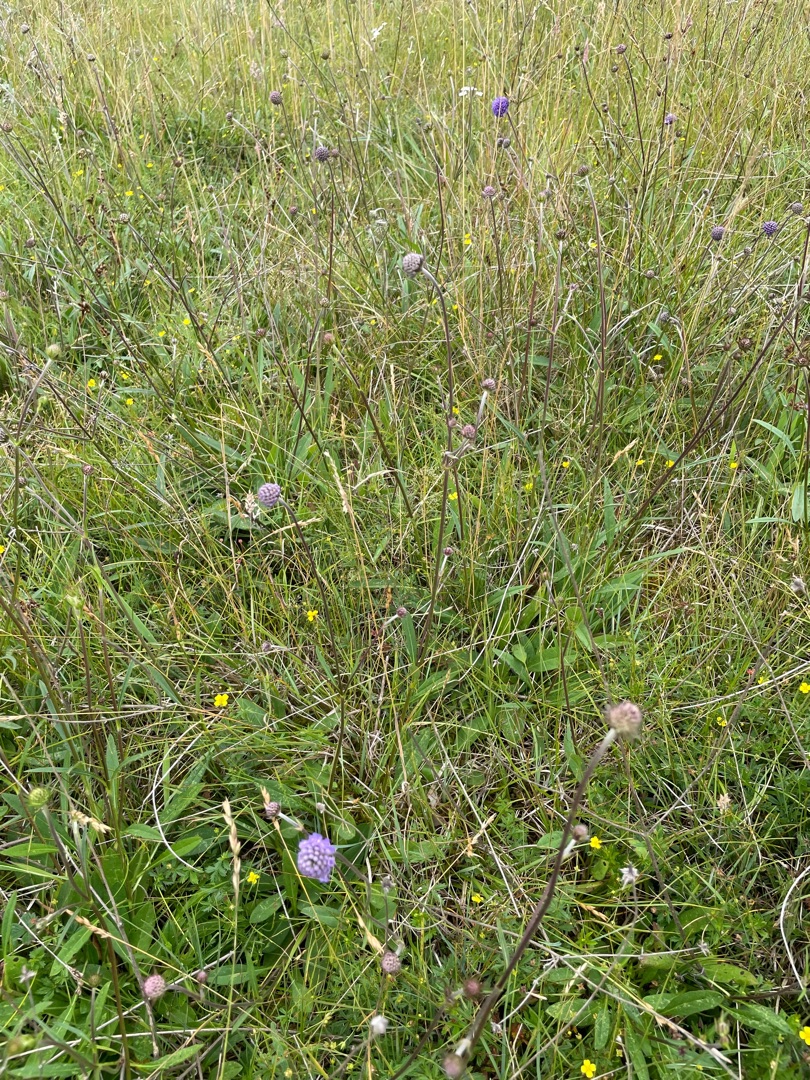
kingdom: Plantae
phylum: Tracheophyta
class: Magnoliopsida
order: Dipsacales
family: Caprifoliaceae
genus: Succisa
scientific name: Succisa pratensis
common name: Djævelsbid
